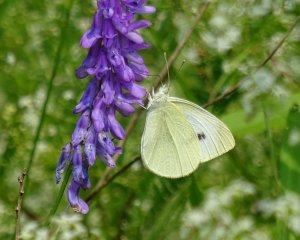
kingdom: Animalia
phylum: Arthropoda
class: Insecta
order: Lepidoptera
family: Pieridae
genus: Pieris
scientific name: Pieris rapae
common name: Cabbage White
